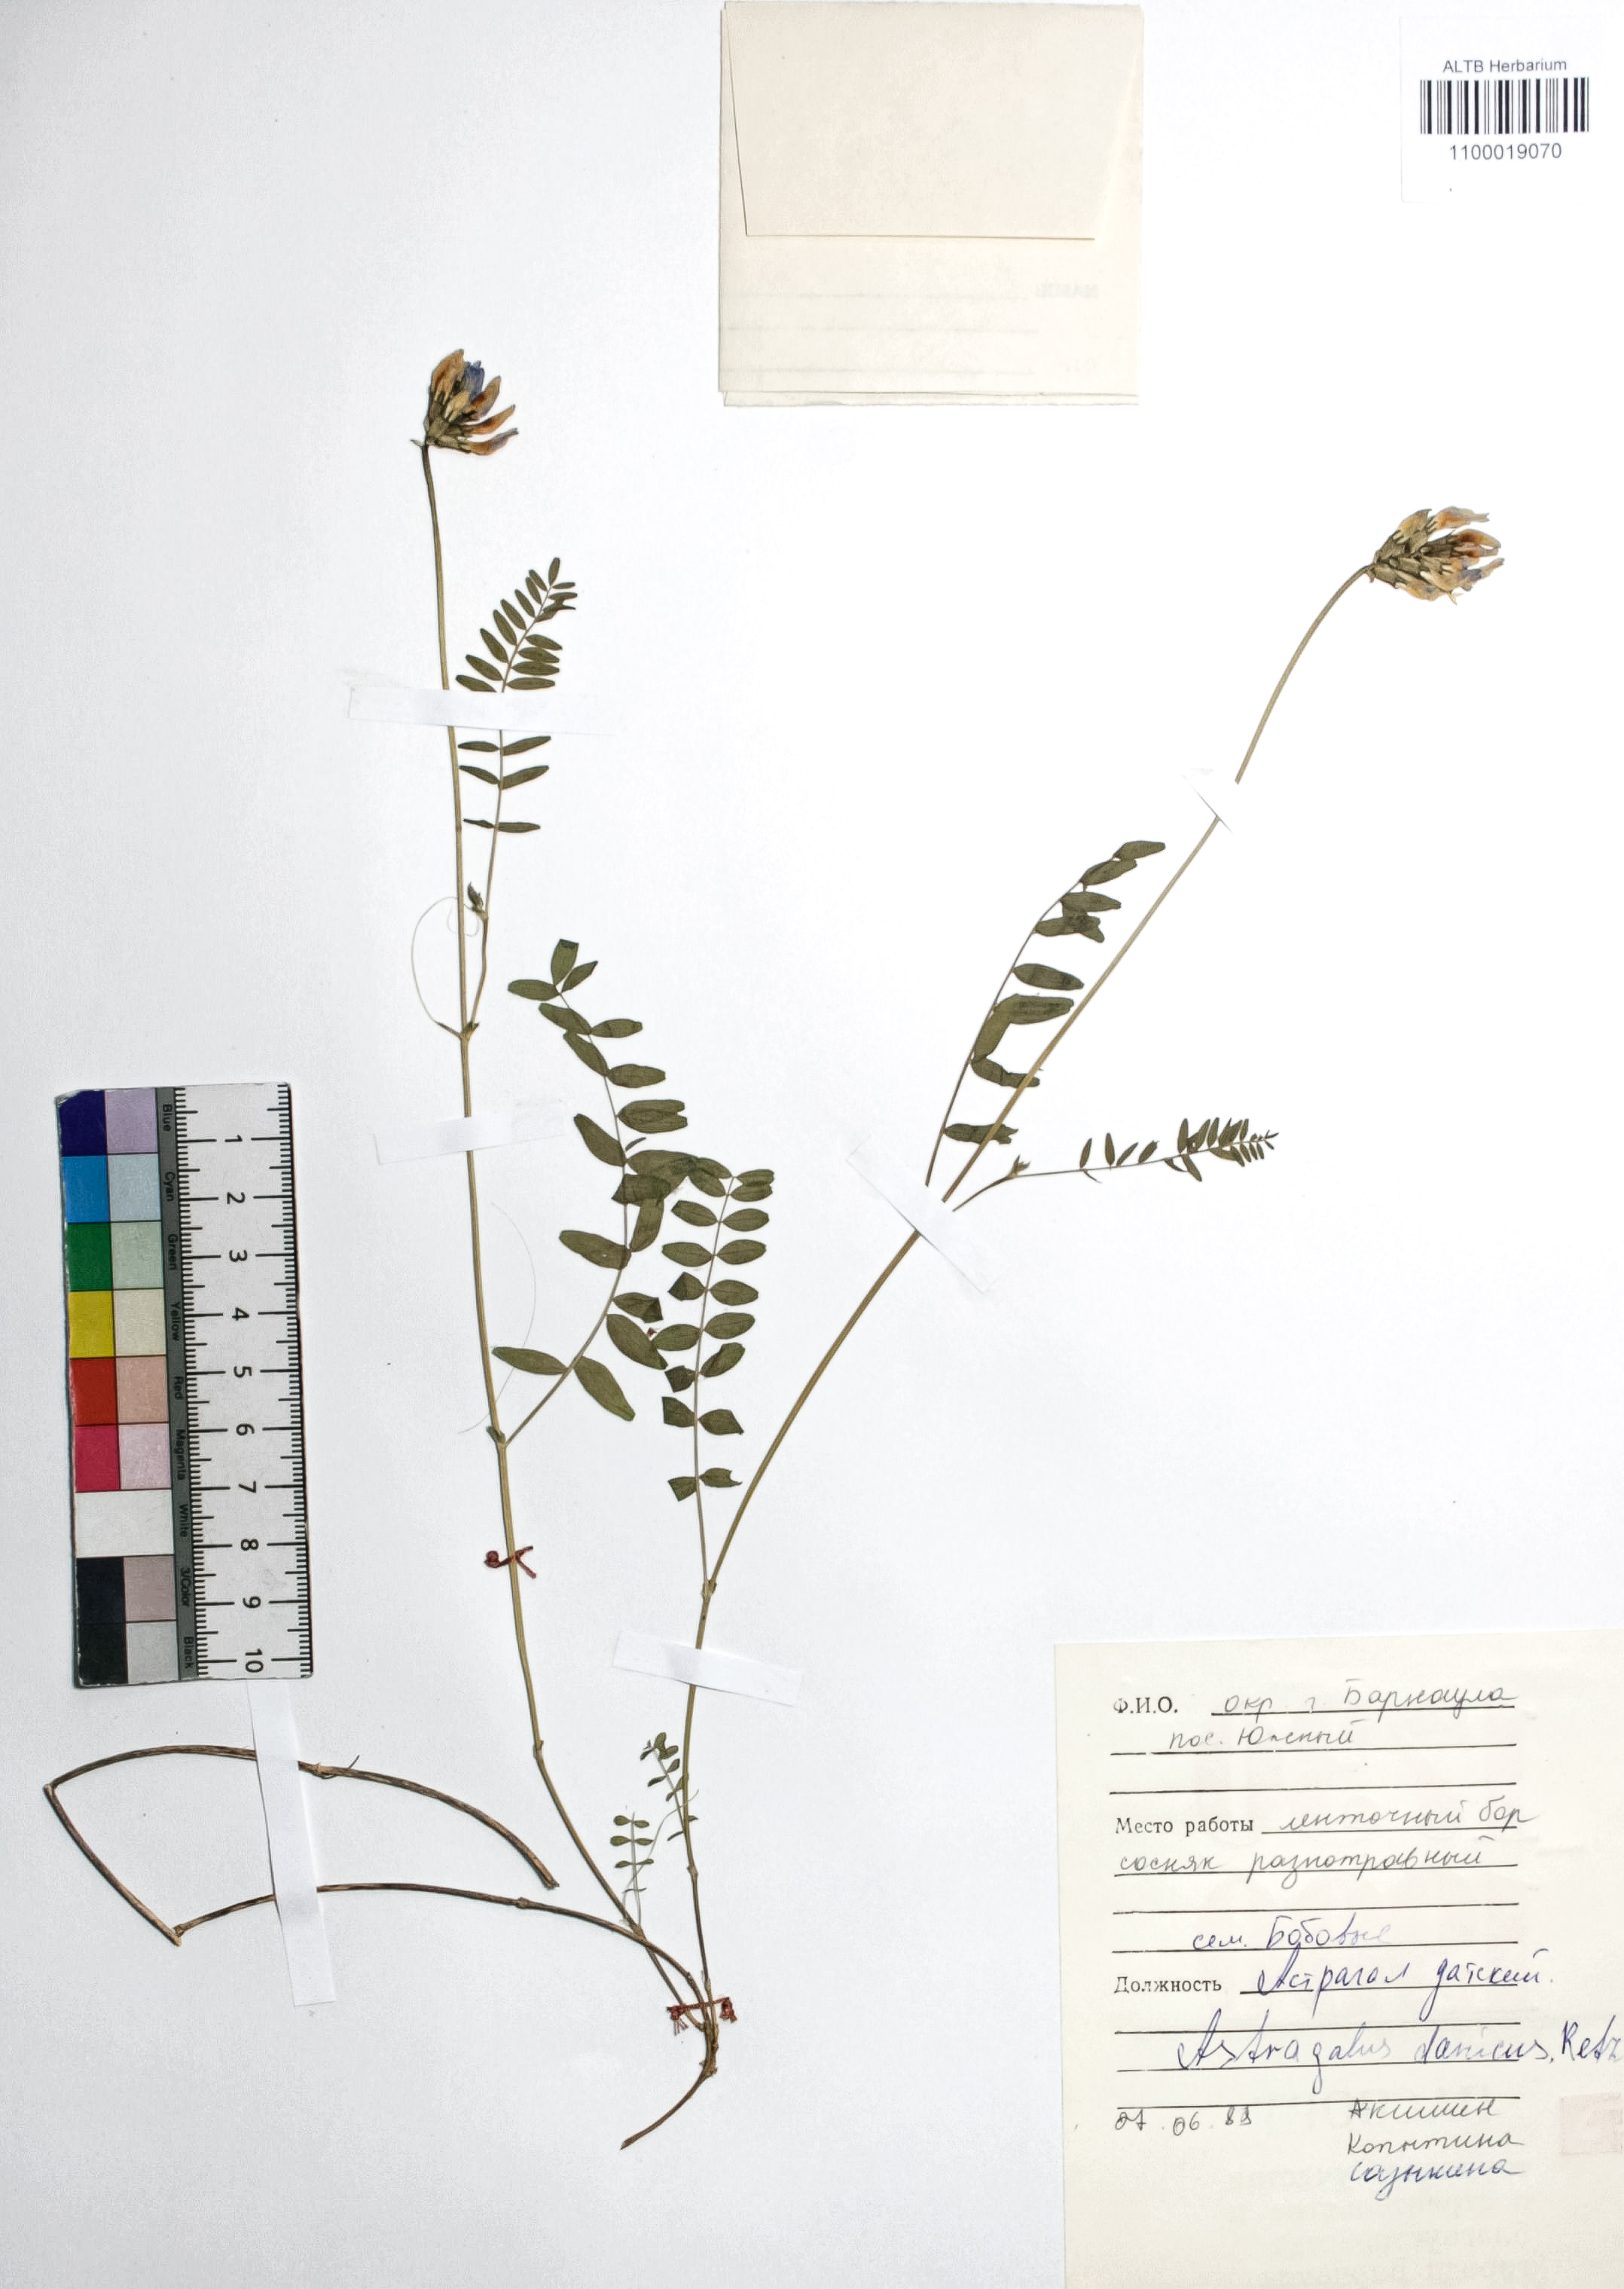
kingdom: Plantae
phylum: Tracheophyta
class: Magnoliopsida
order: Fabales
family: Fabaceae
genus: Astragalus
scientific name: Astragalus danicus
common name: Purple milk-vetch
